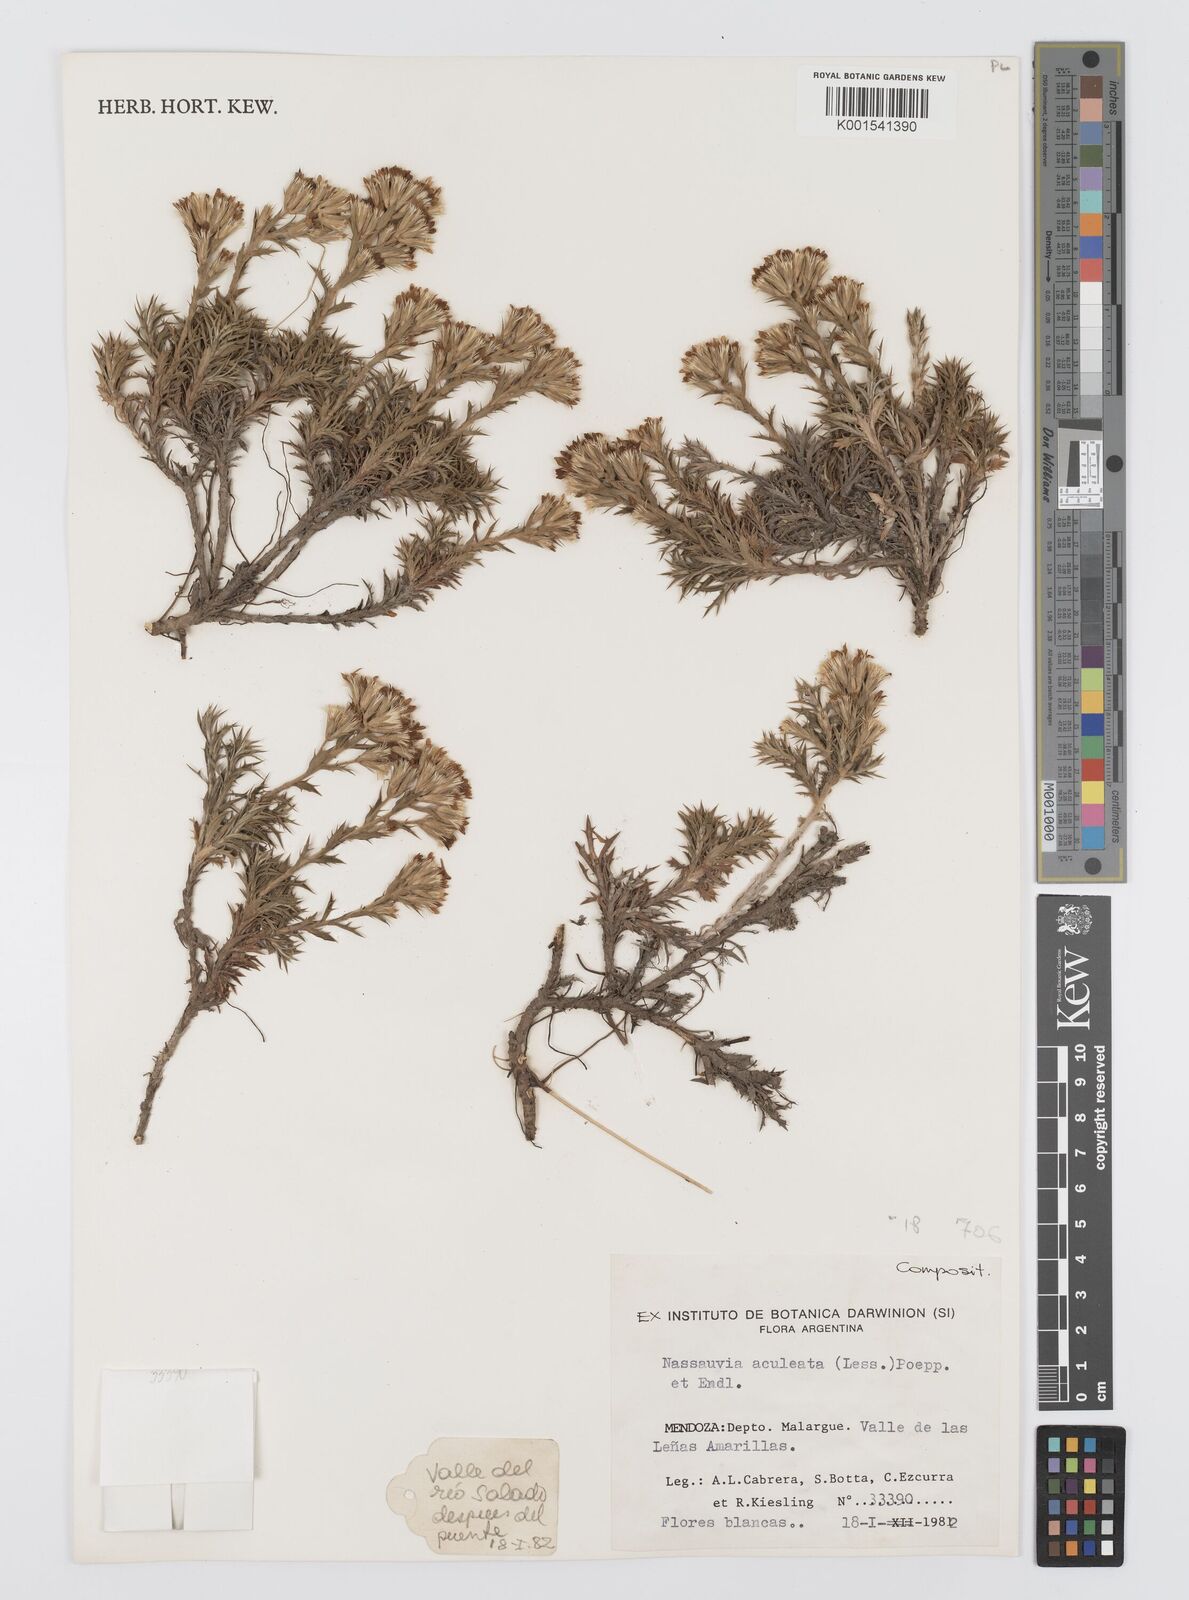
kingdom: Plantae
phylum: Tracheophyta
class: Magnoliopsida
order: Asterales
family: Asteraceae
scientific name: Asteraceae
